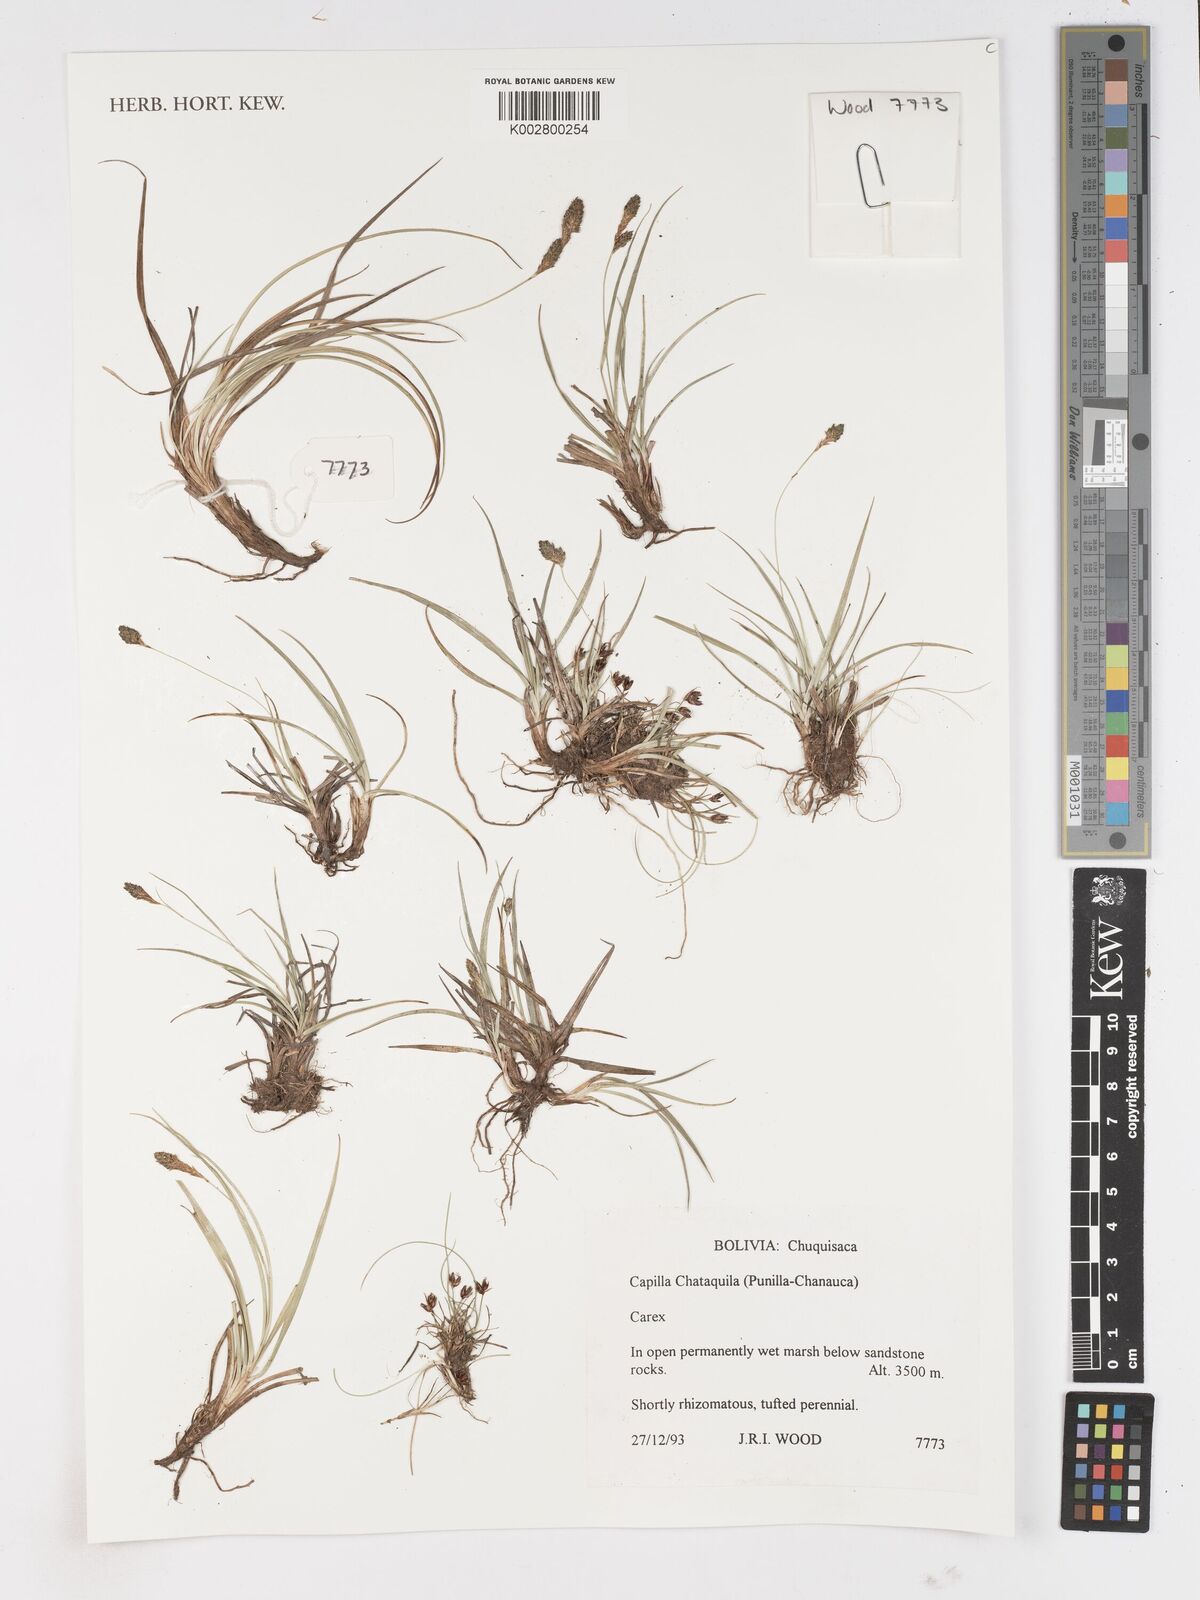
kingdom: Plantae
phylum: Tracheophyta
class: Liliopsida
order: Poales
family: Cyperaceae
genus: Carex
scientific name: Carex
